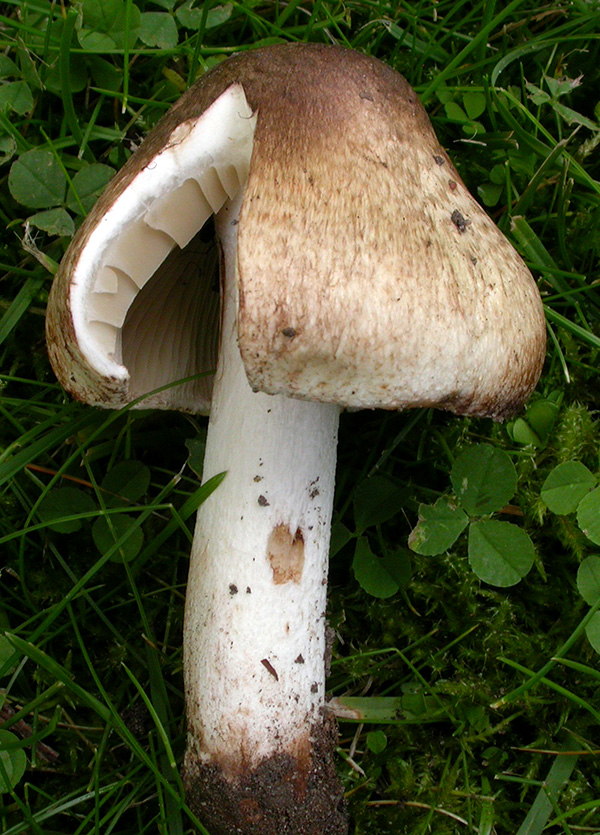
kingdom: Fungi
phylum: Basidiomycota
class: Agaricomycetes
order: Agaricales
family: Inocybaceae
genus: Inocybe
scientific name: Inocybe erinaceomorpha
